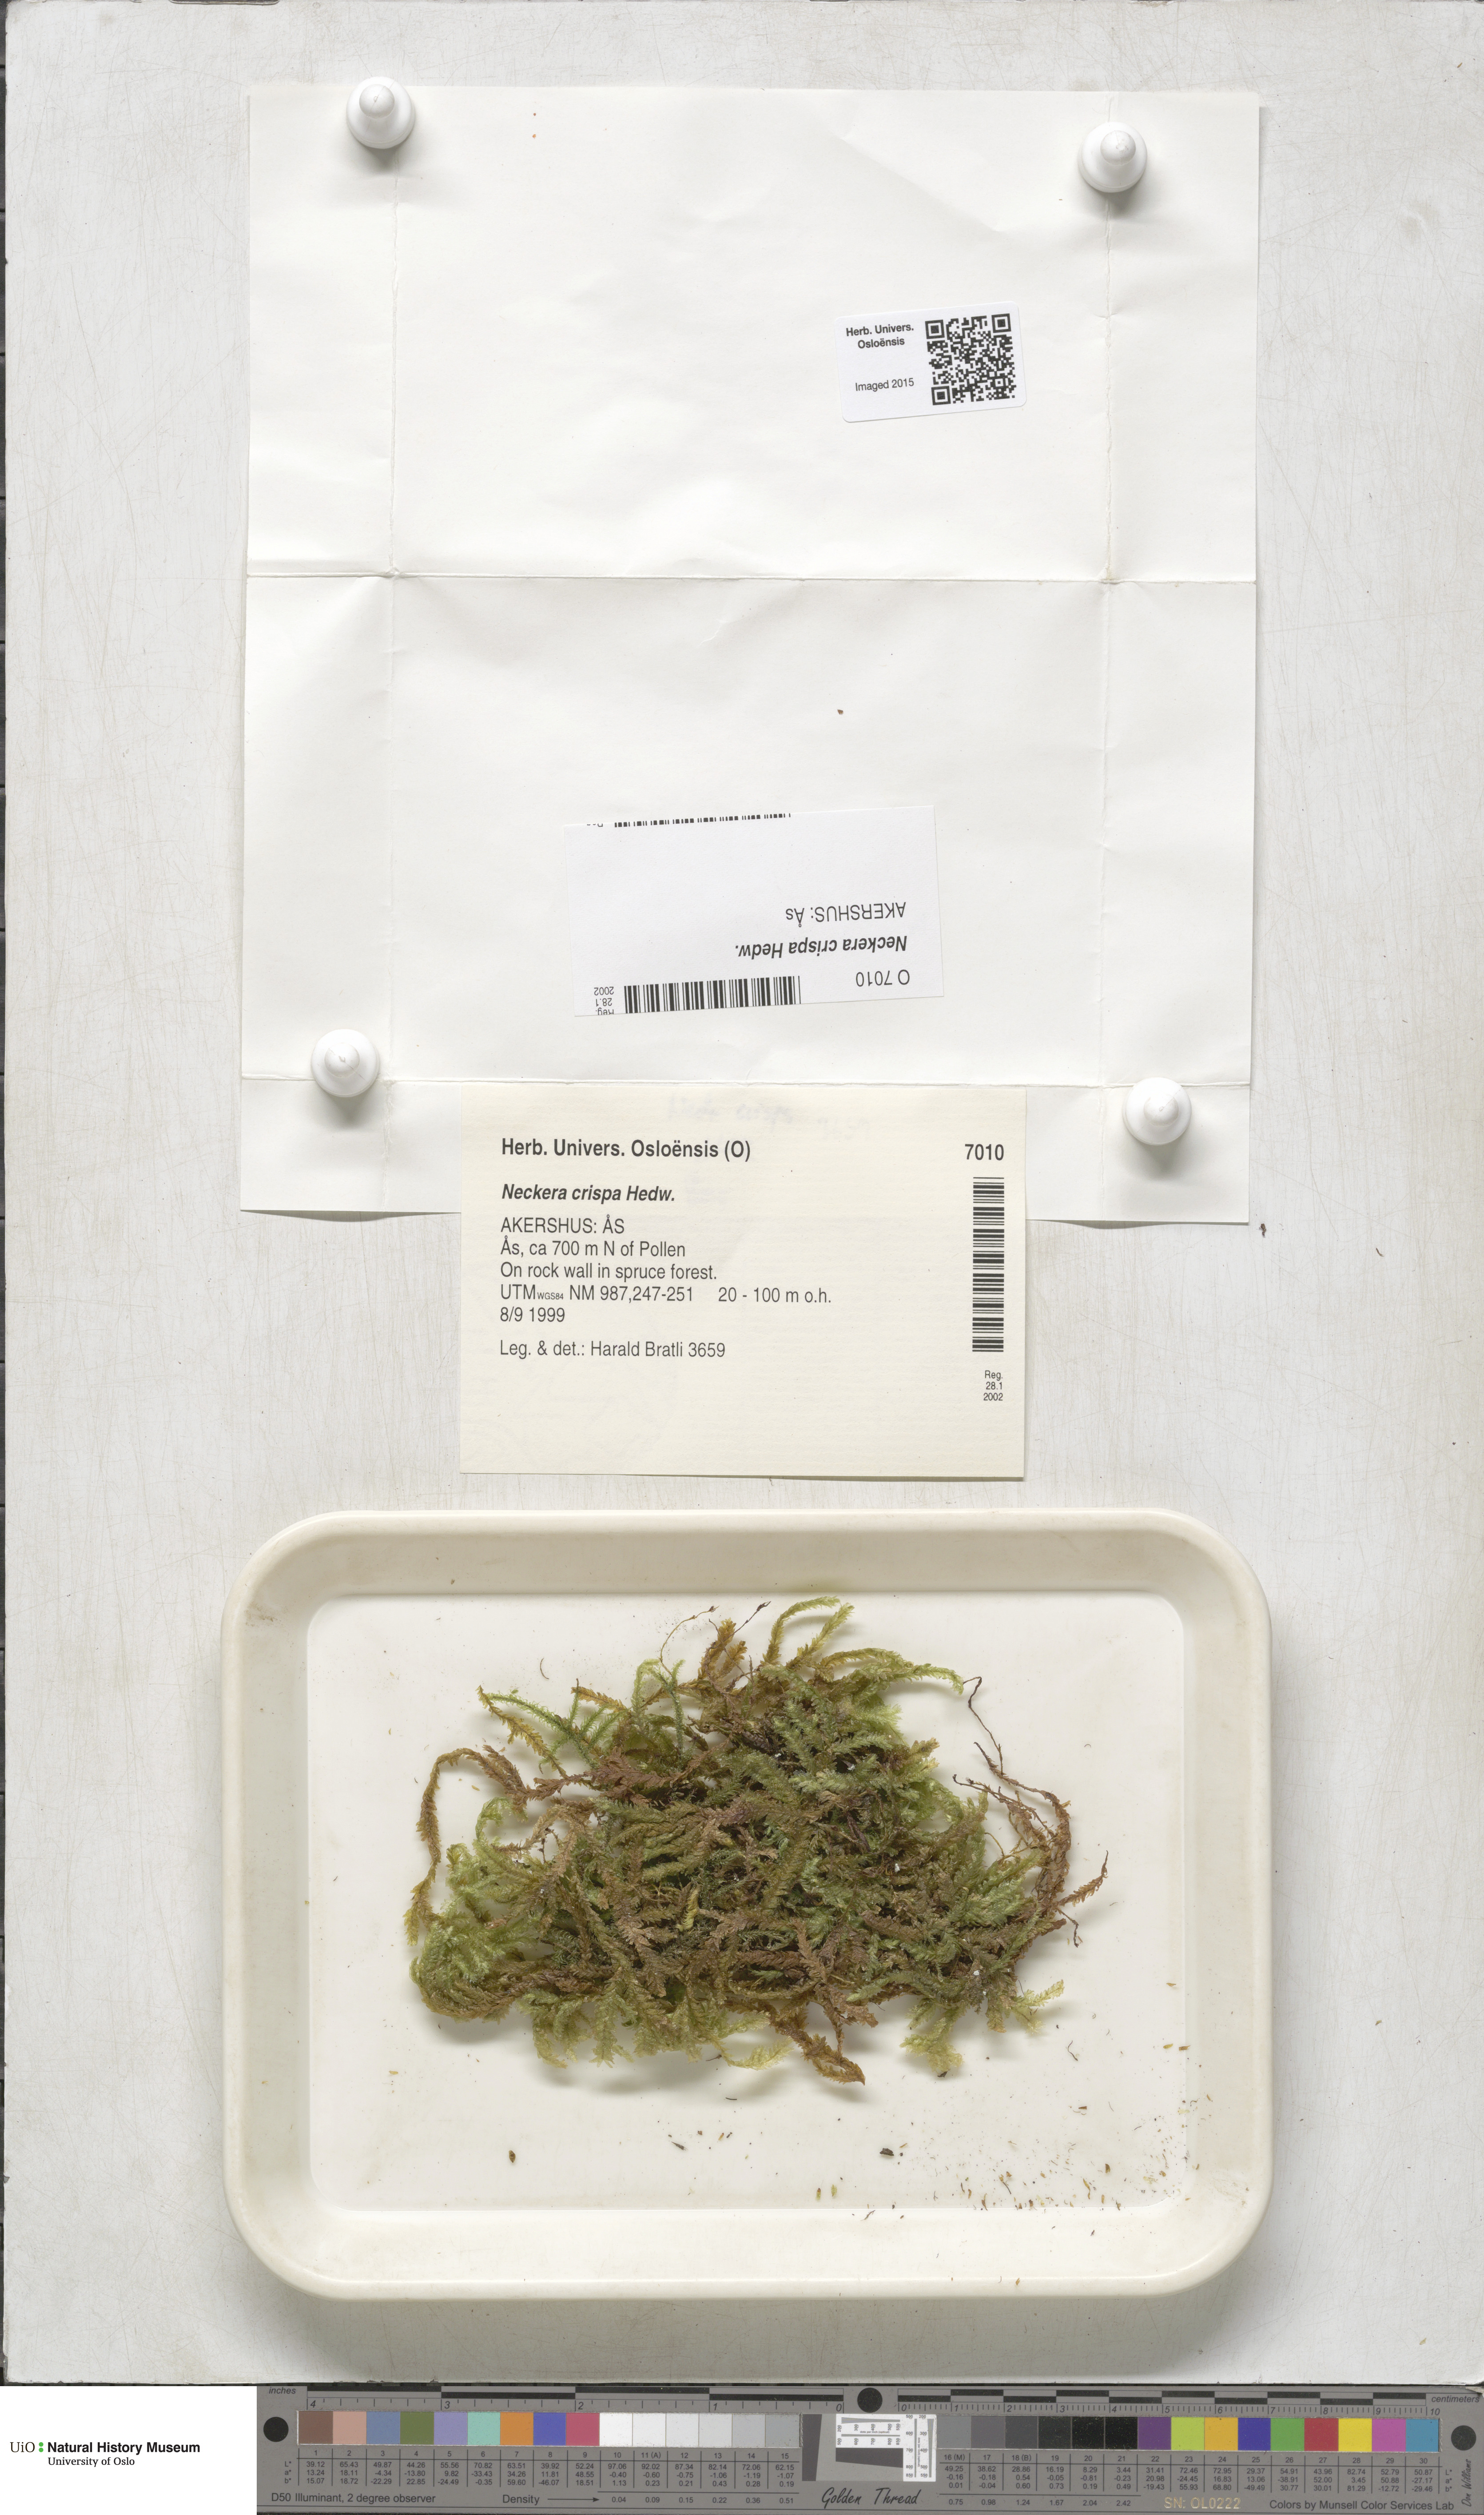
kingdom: Plantae
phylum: Bryophyta
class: Bryopsida
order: Hypnales
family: Neckeraceae
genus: Exsertotheca
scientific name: Exsertotheca crispa
